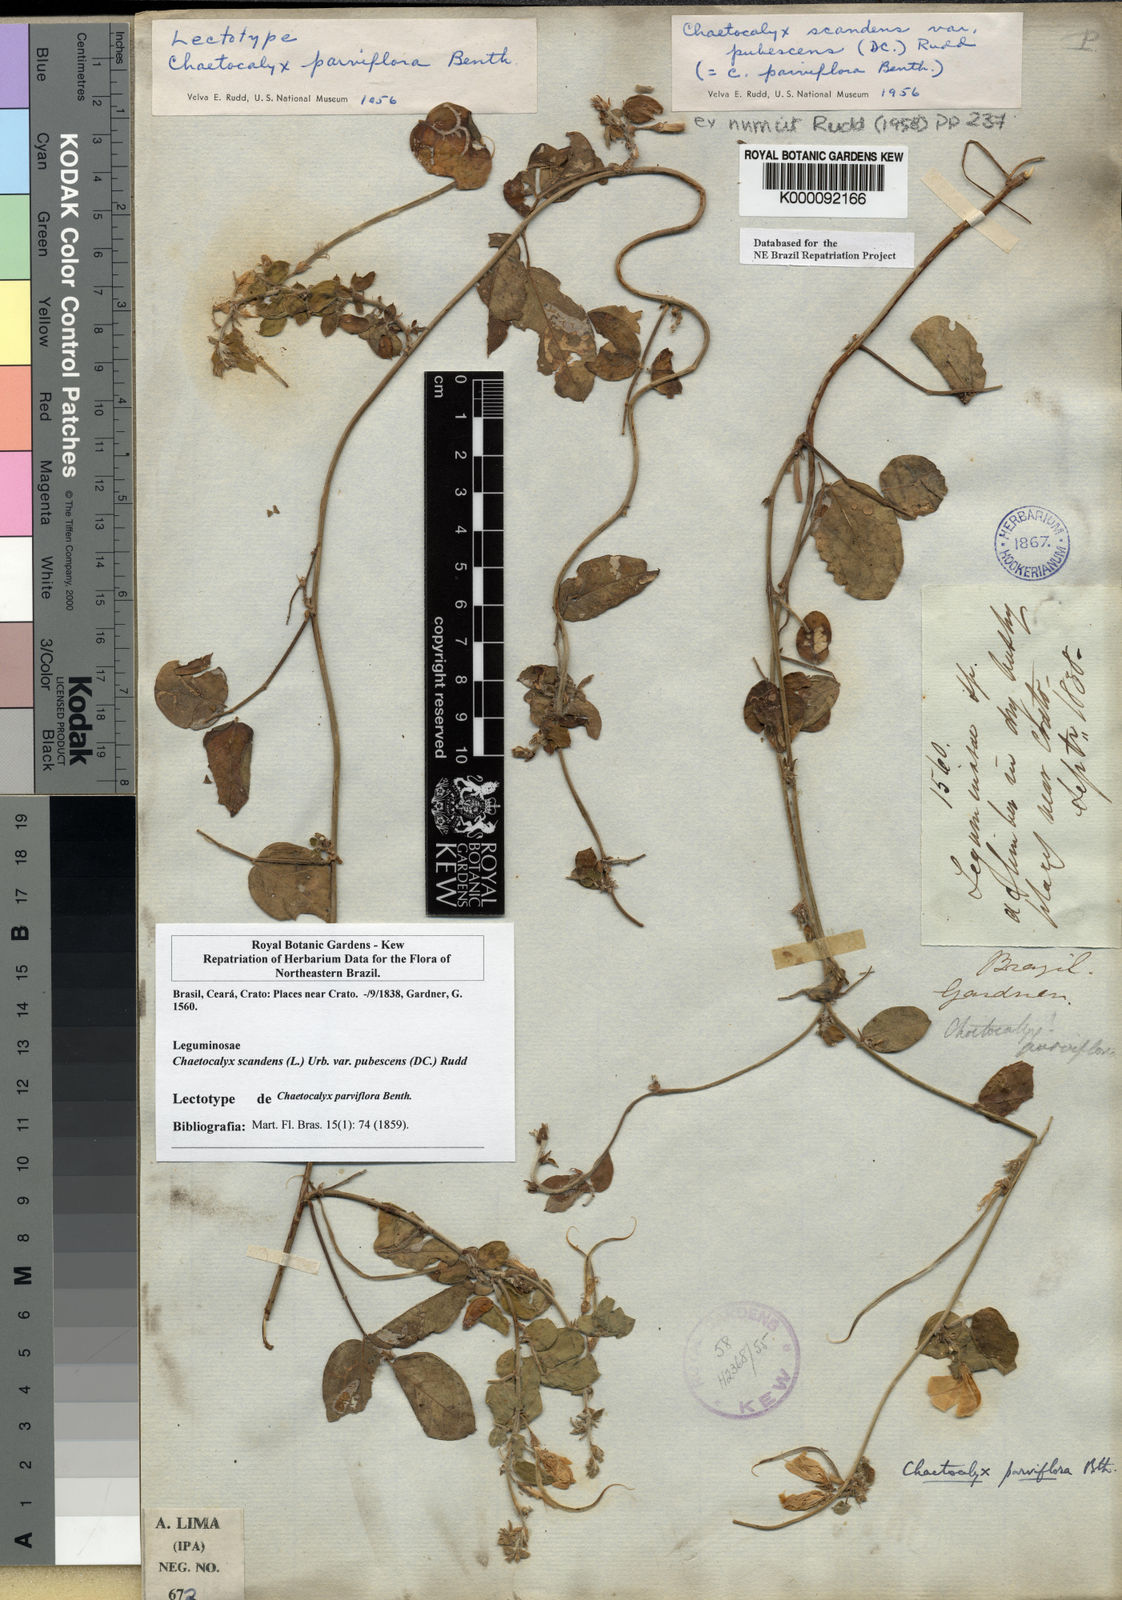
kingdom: Plantae
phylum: Tracheophyta
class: Magnoliopsida
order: Fabales
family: Fabaceae
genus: Nissolia
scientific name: Nissolia vincentina
